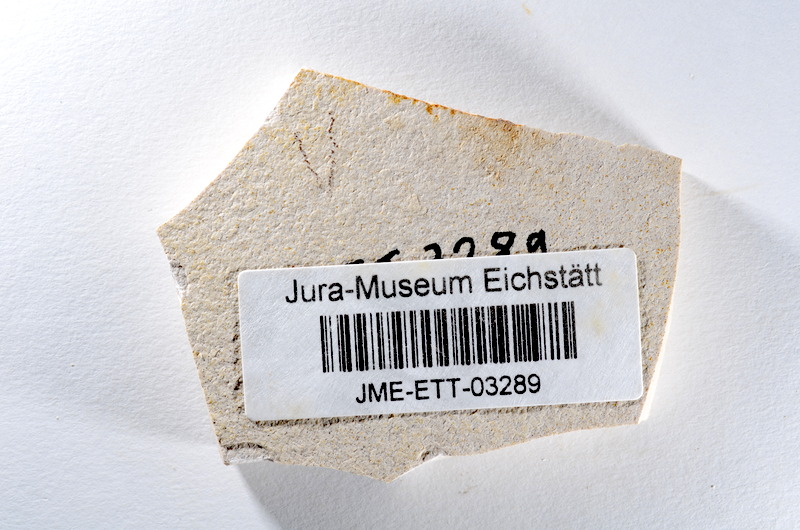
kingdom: Animalia
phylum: Chordata
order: Salmoniformes
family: Orthogonikleithridae
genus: Orthogonikleithrus
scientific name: Orthogonikleithrus hoelli
